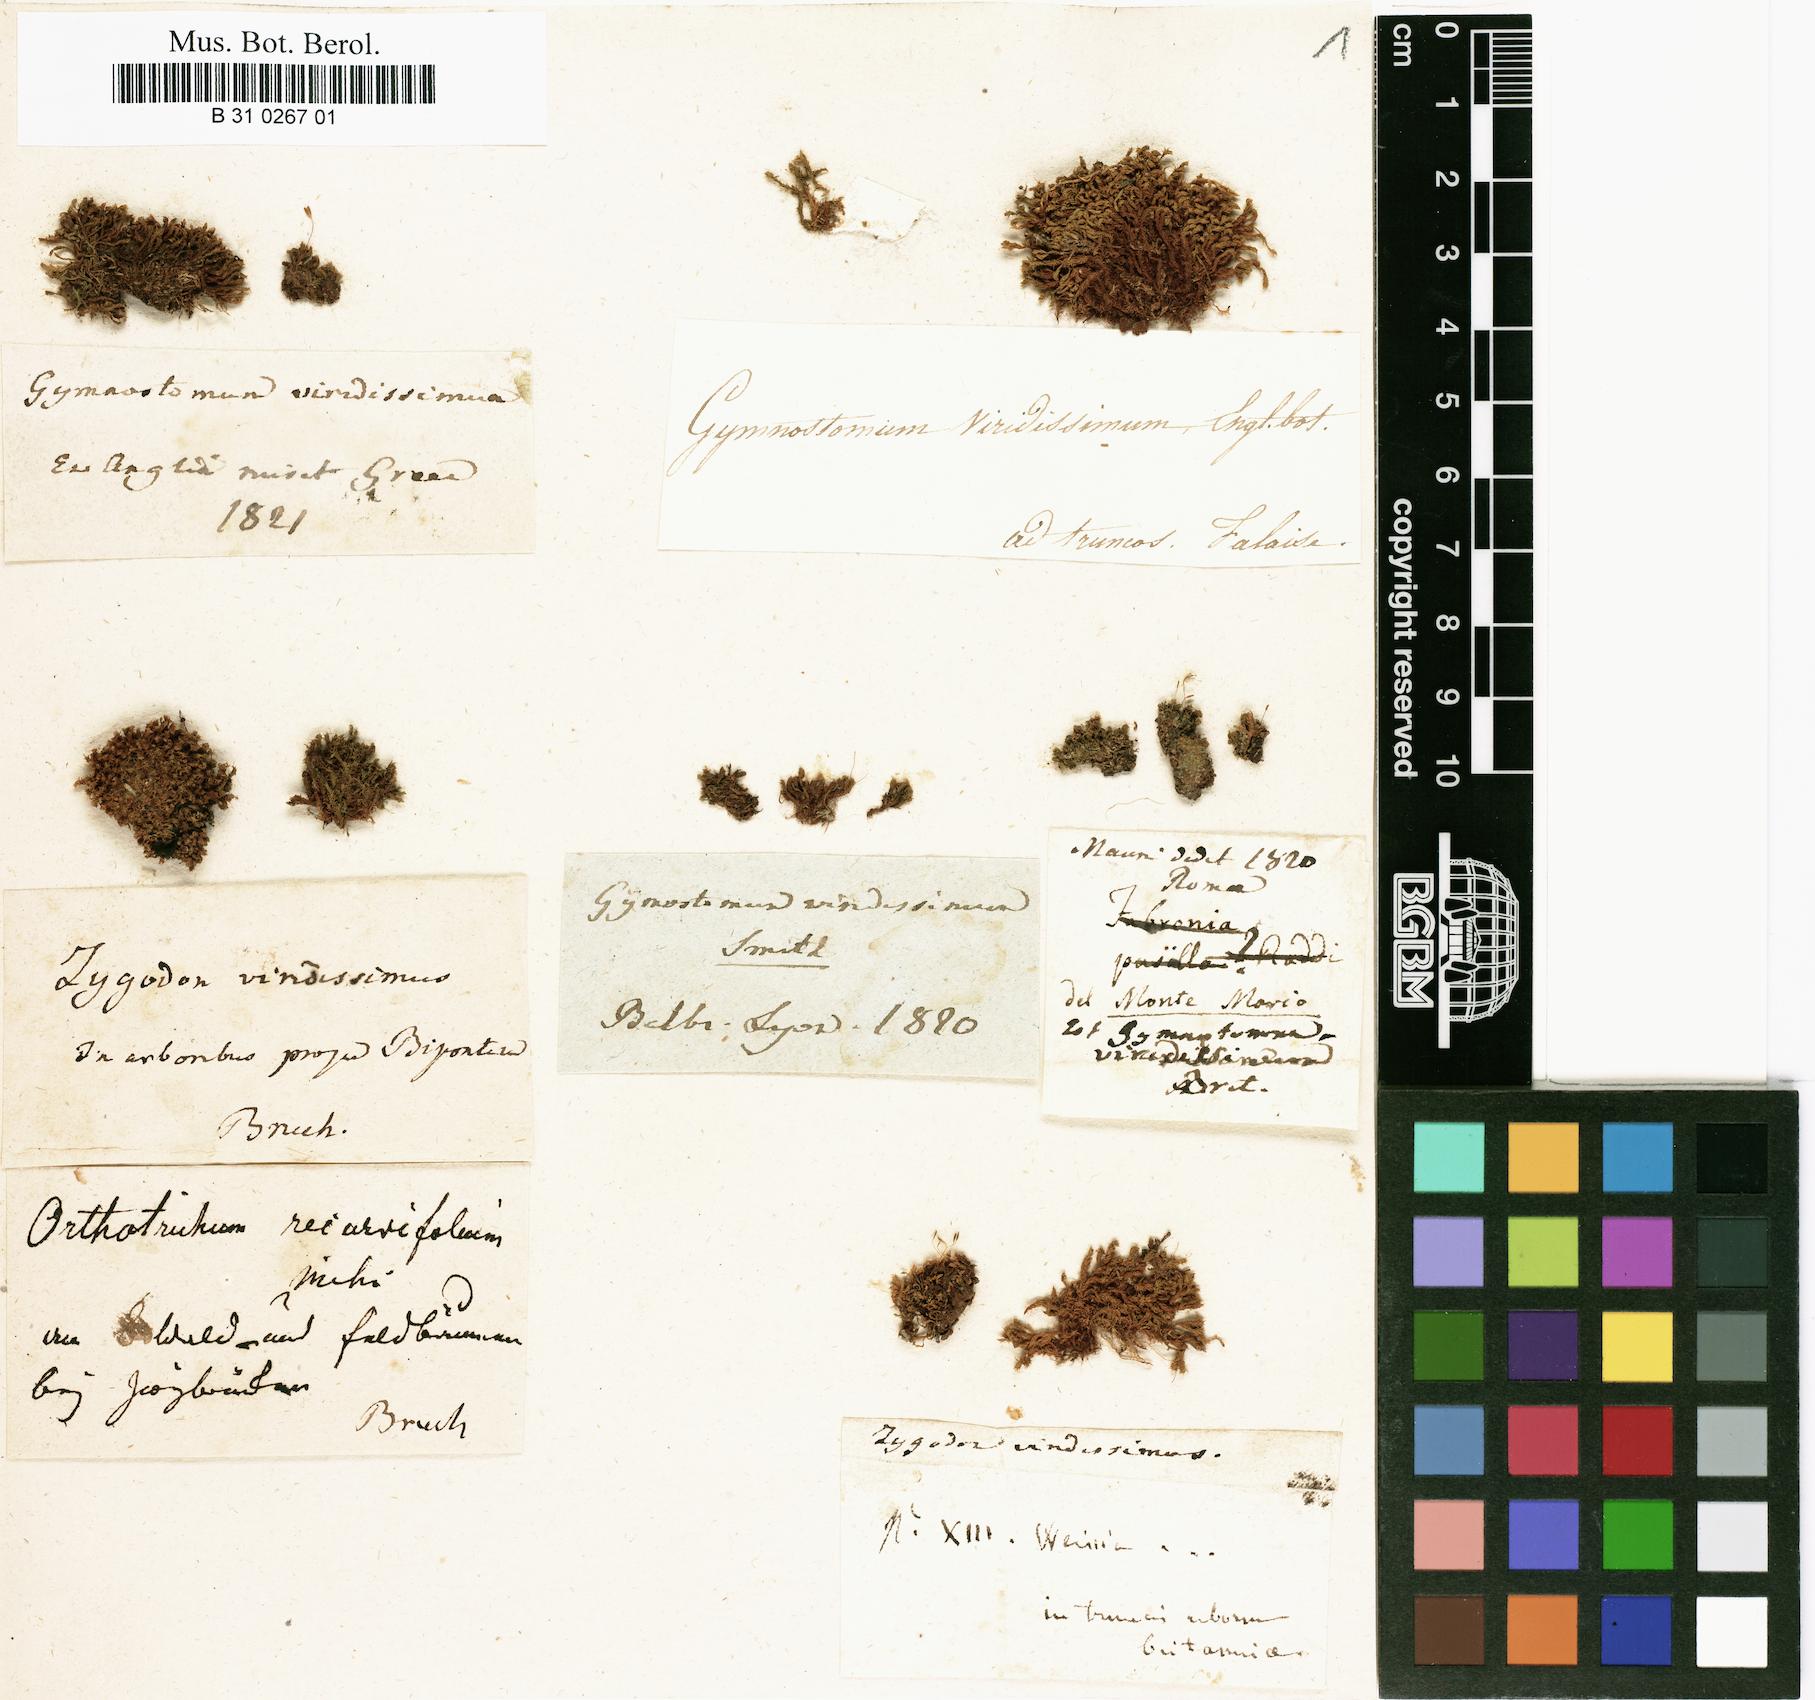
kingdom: Plantae
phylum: Bryophyta
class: Bryopsida
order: Orthotrichales
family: Orthotrichaceae
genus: Zygodon
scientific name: Zygodon viridissimus
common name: Green yoke moss
